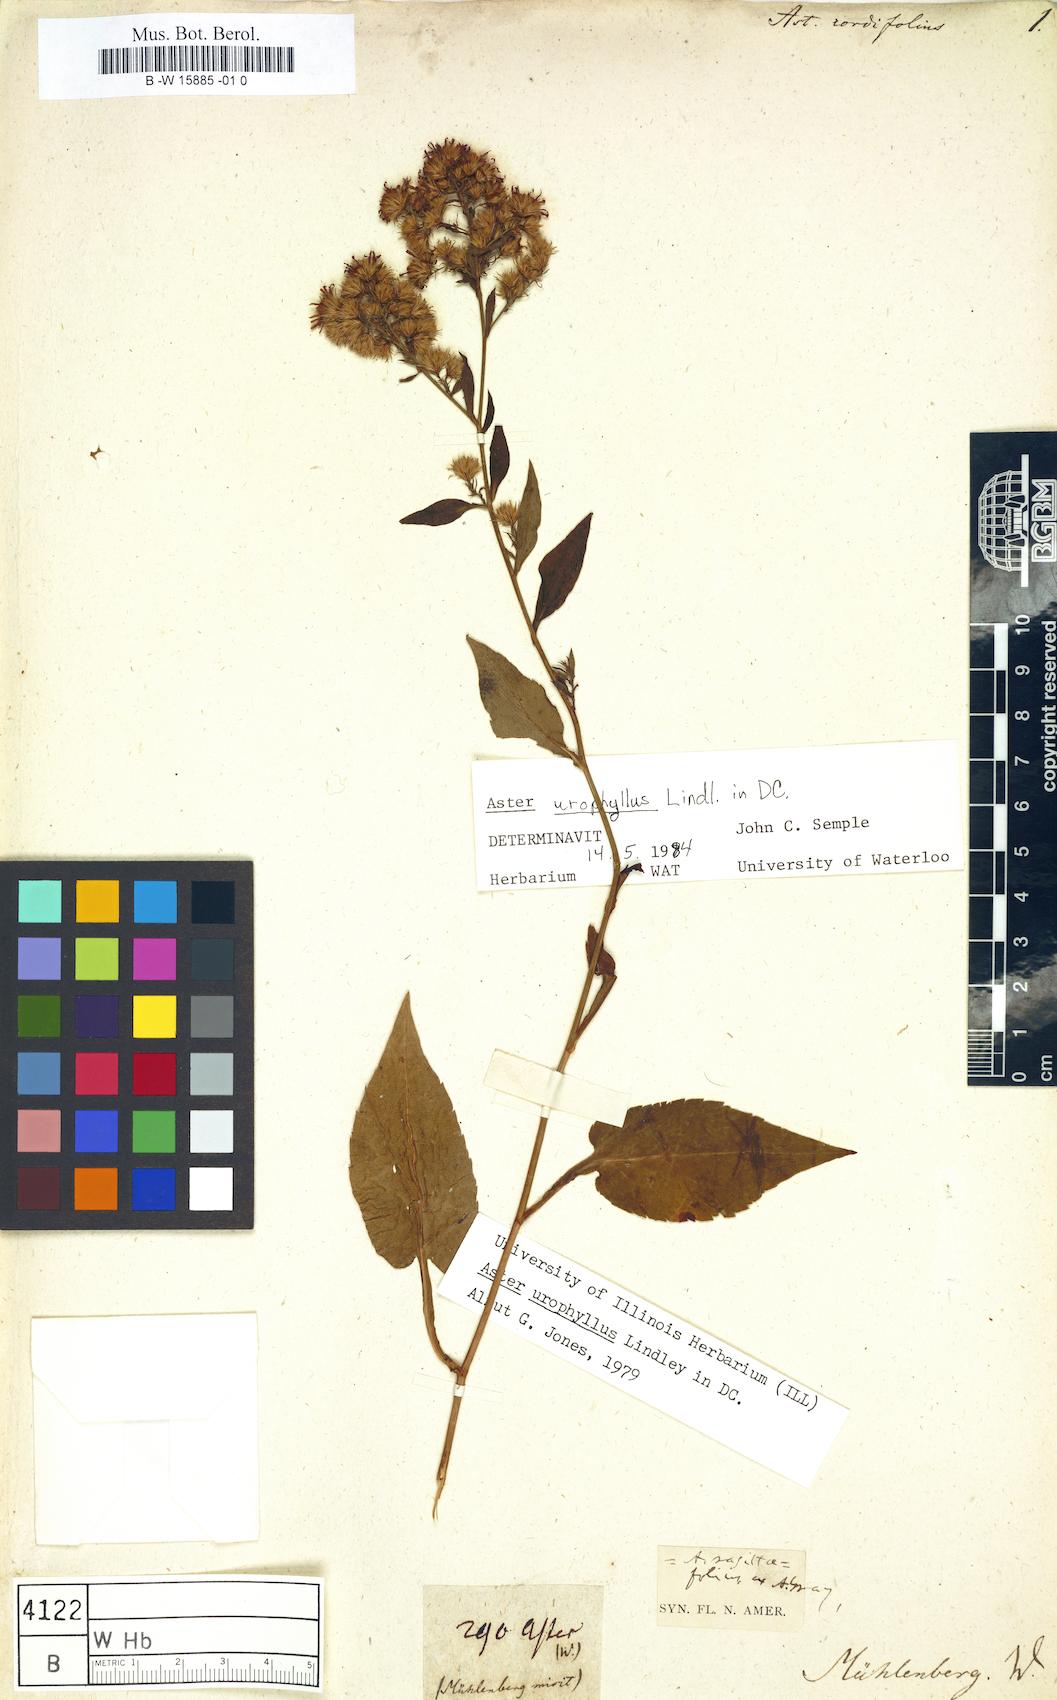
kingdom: Plantae
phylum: Tracheophyta
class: Magnoliopsida
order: Asterales
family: Asteraceae
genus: Symphyotrichum
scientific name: Symphyotrichum cordifolium
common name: Beeweed
